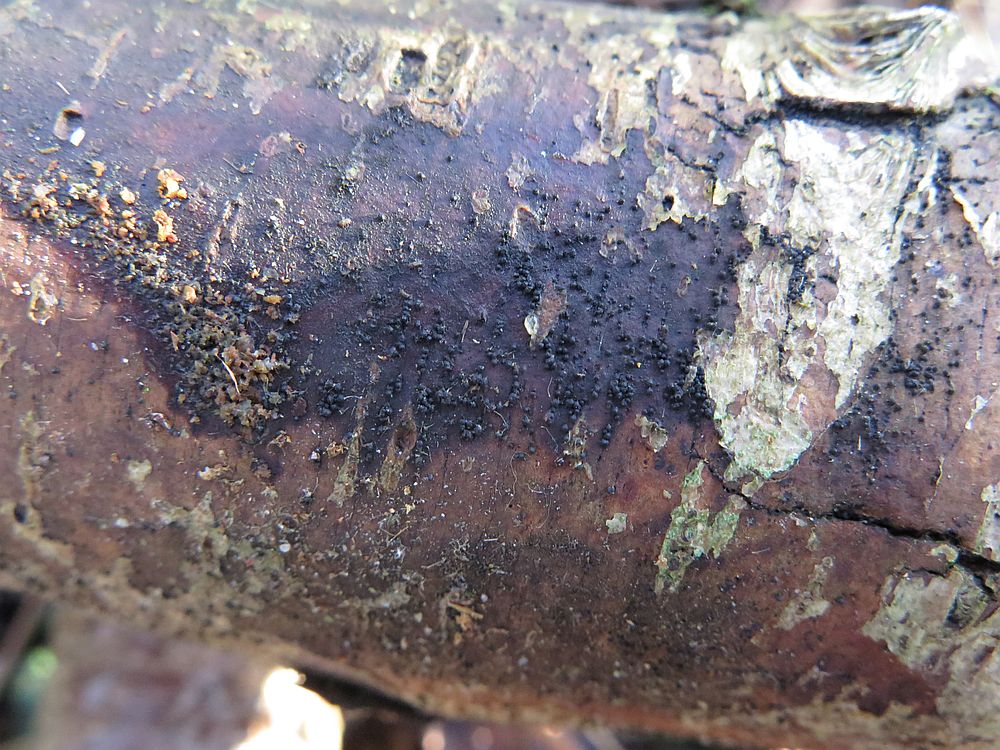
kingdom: Fungi
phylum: Ascomycota
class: Dothideomycetes
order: Pleosporales
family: Melanommataceae
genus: Melanomma
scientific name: Melanomma pulvis-pyrius
